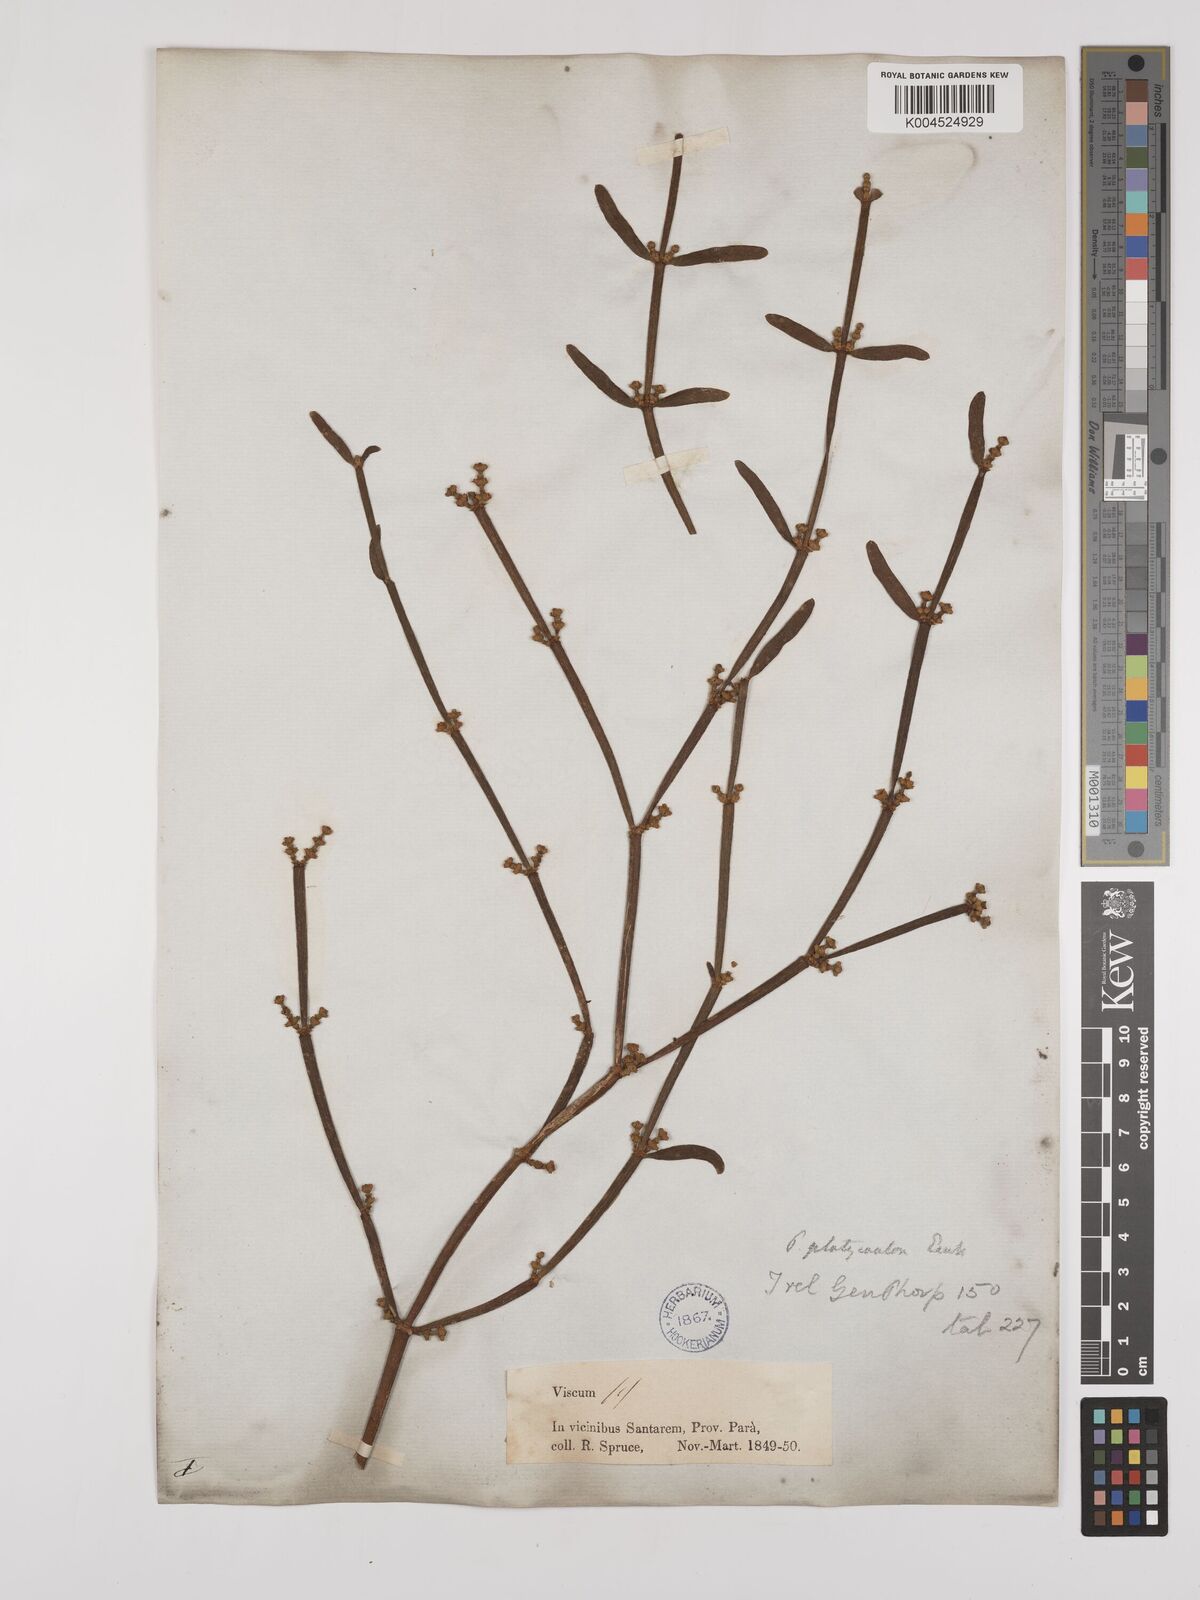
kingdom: Plantae
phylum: Tracheophyta
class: Magnoliopsida
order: Santalales
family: Viscaceae
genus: Phoradendron
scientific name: Phoradendron planiphyllum
